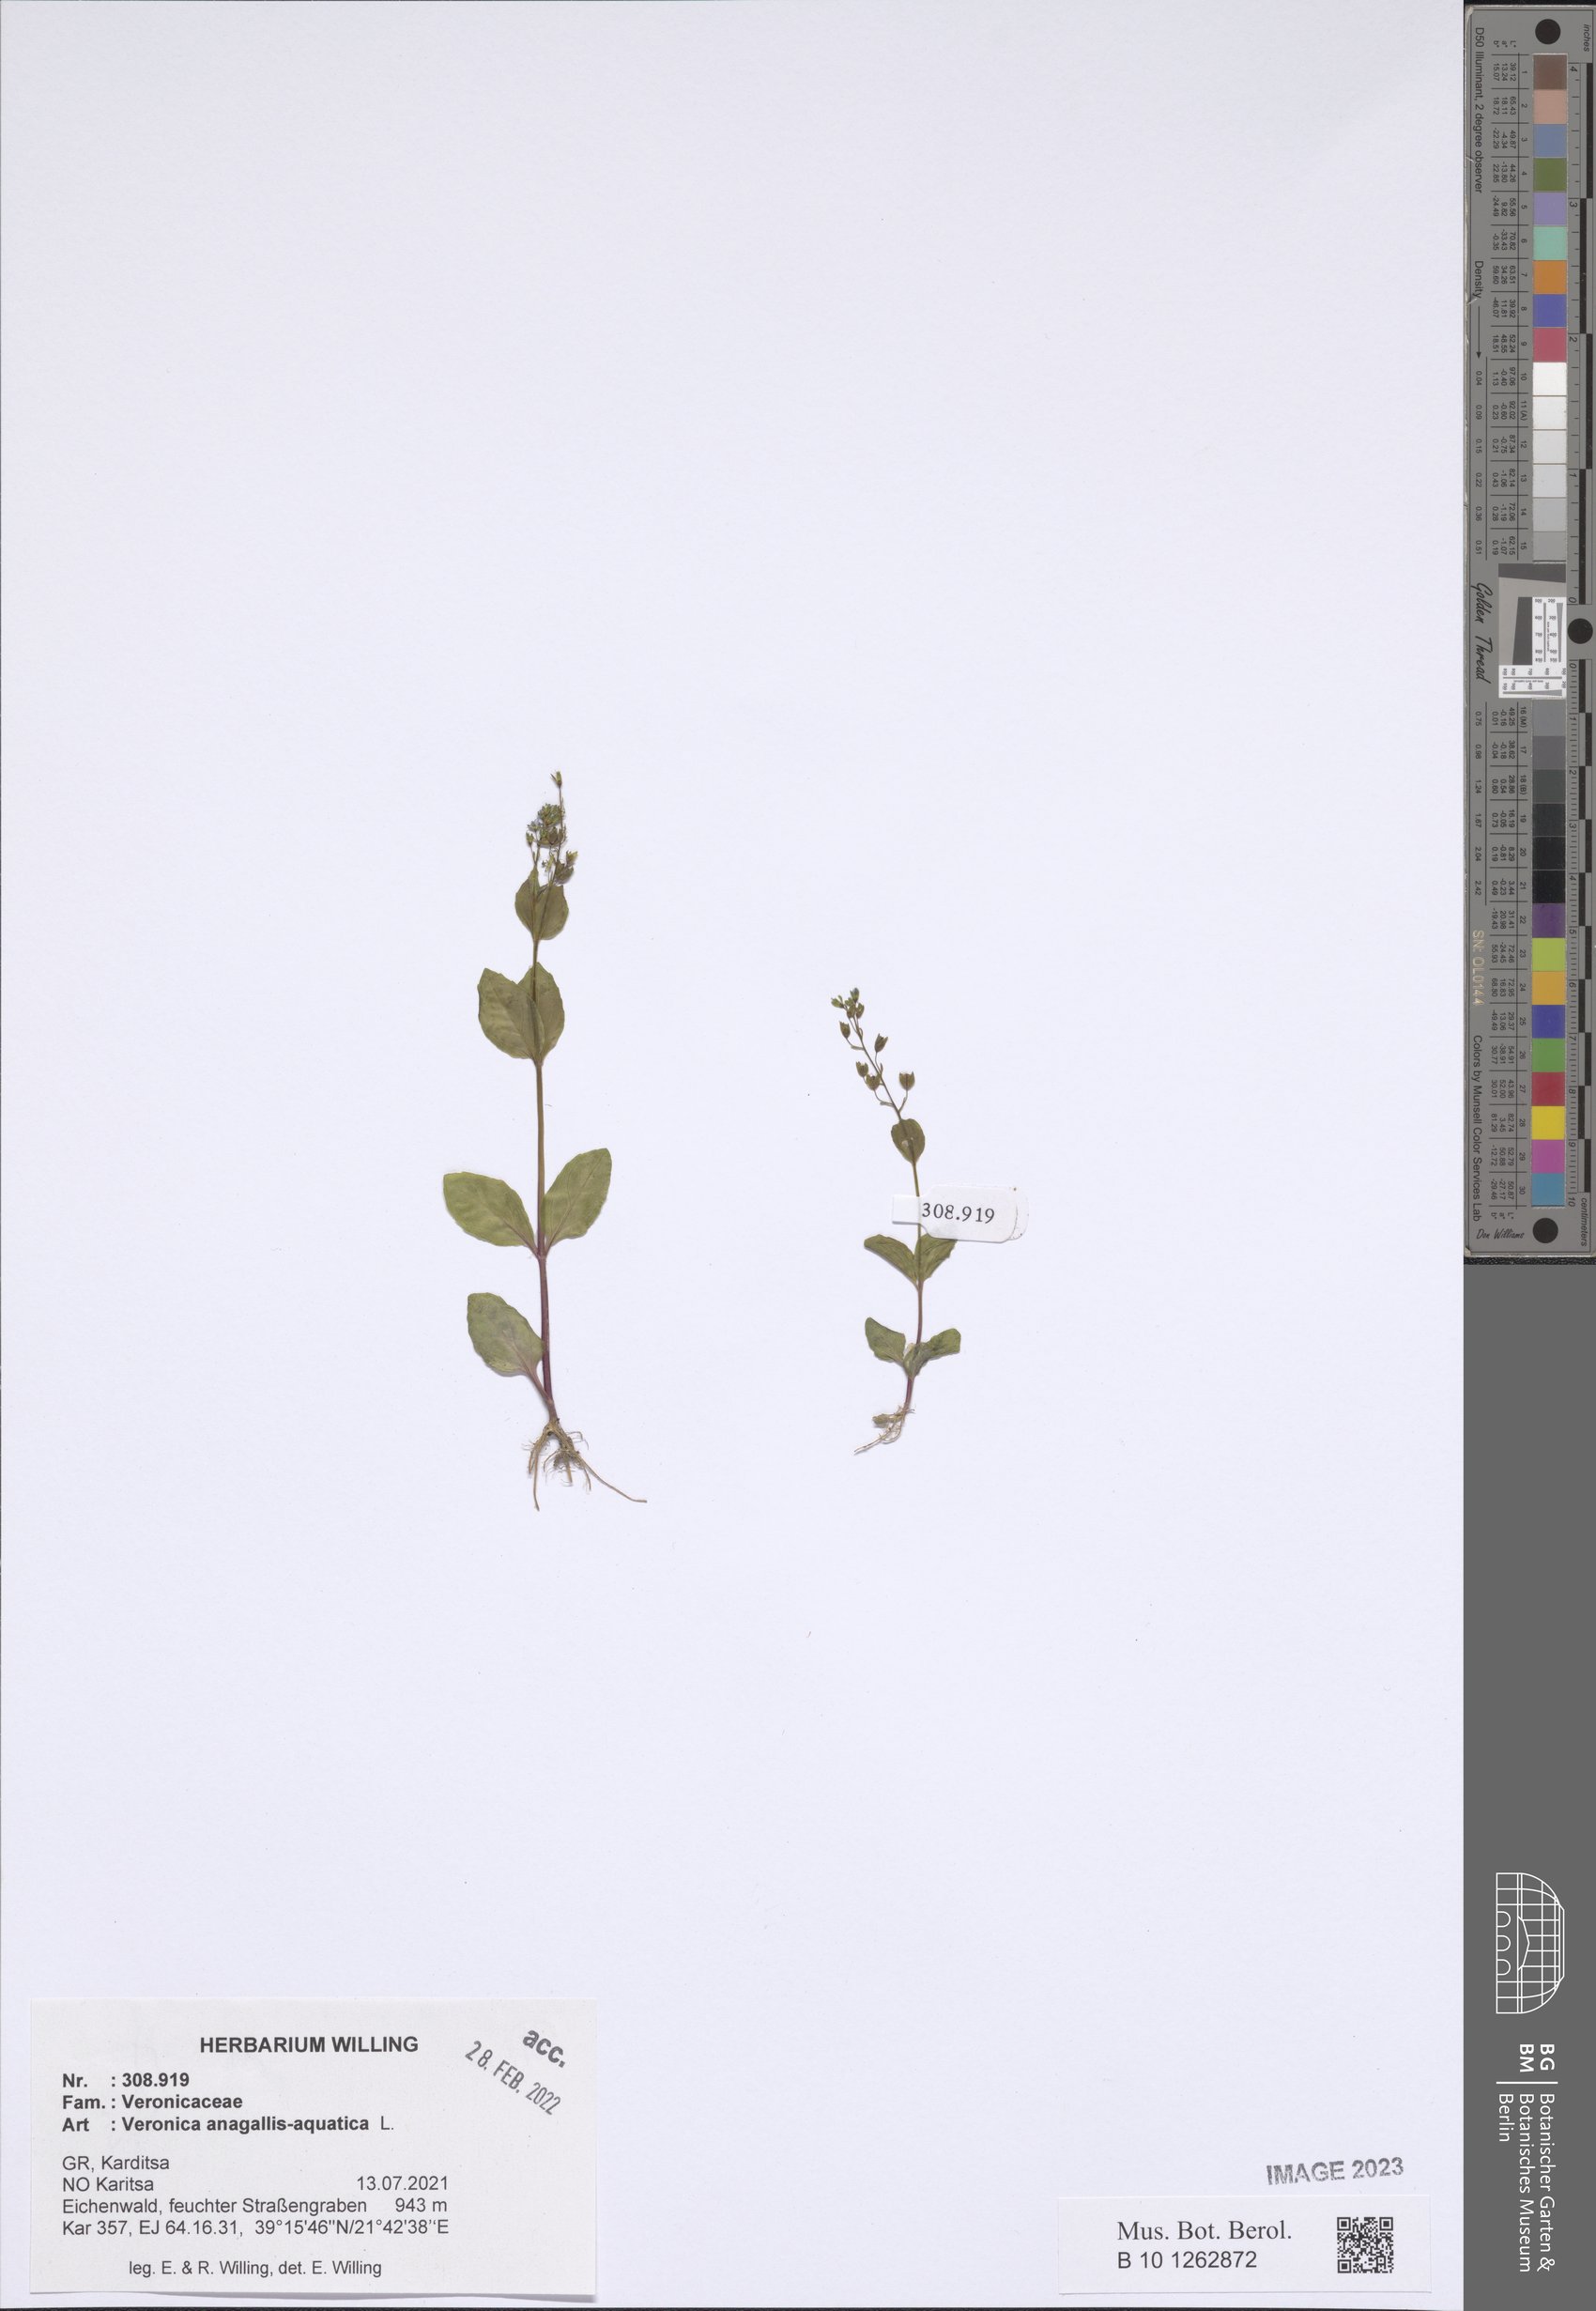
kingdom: Plantae
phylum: Tracheophyta
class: Magnoliopsida
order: Lamiales
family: Plantaginaceae
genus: Veronica
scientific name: Veronica anagallis-aquatica
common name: Water speedwell
